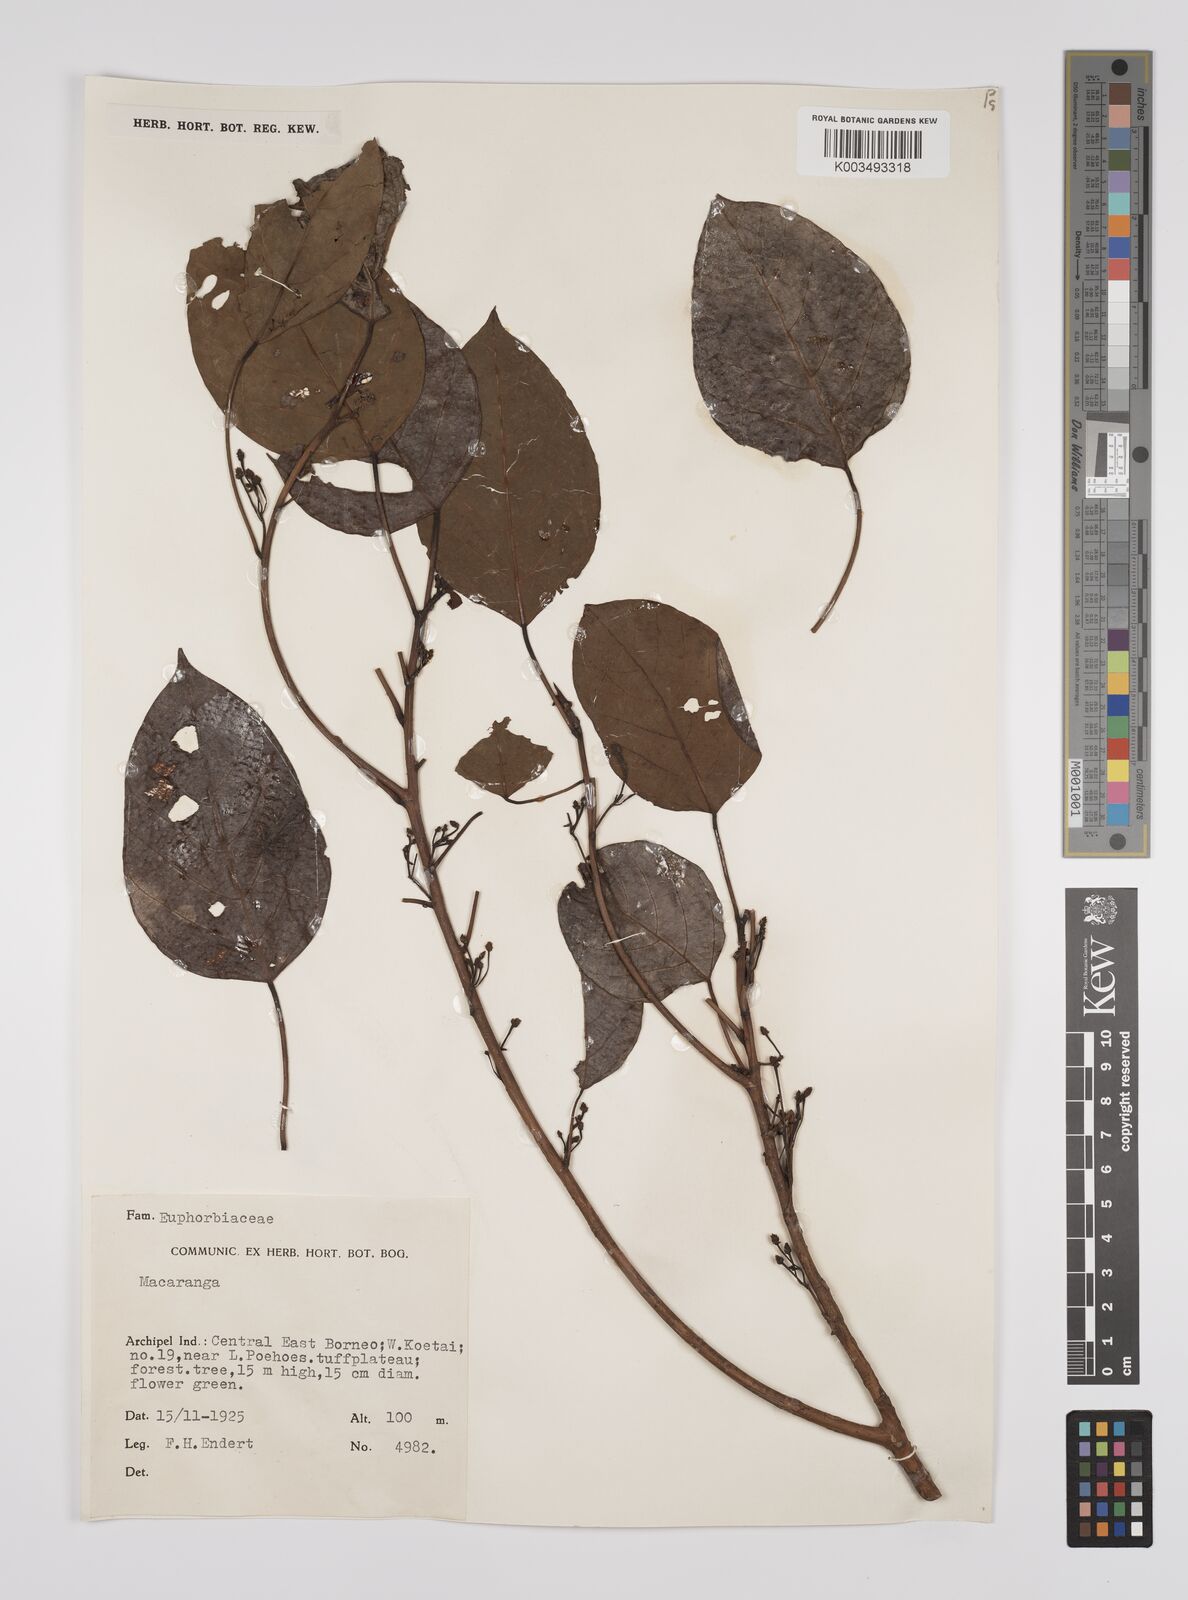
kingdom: Plantae
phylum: Tracheophyta
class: Magnoliopsida
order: Malpighiales
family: Euphorbiaceae
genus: Macaranga
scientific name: Macaranga conifera
